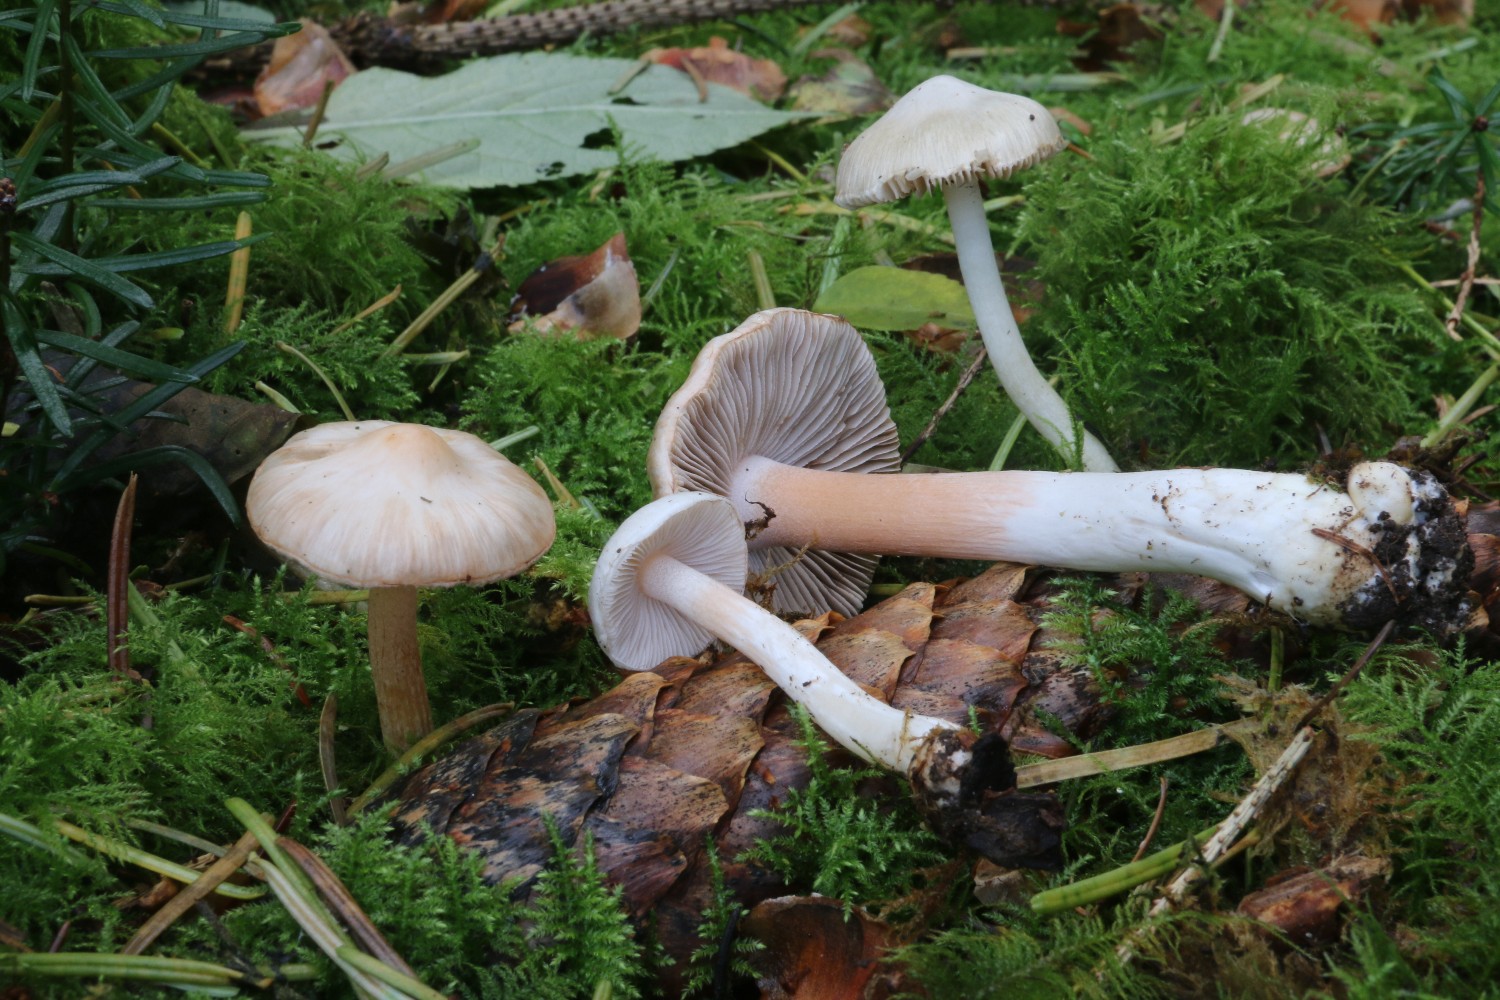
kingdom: Fungi
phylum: Basidiomycota
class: Agaricomycetes
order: Agaricales
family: Inocybaceae
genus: Inocybe
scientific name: Inocybe
